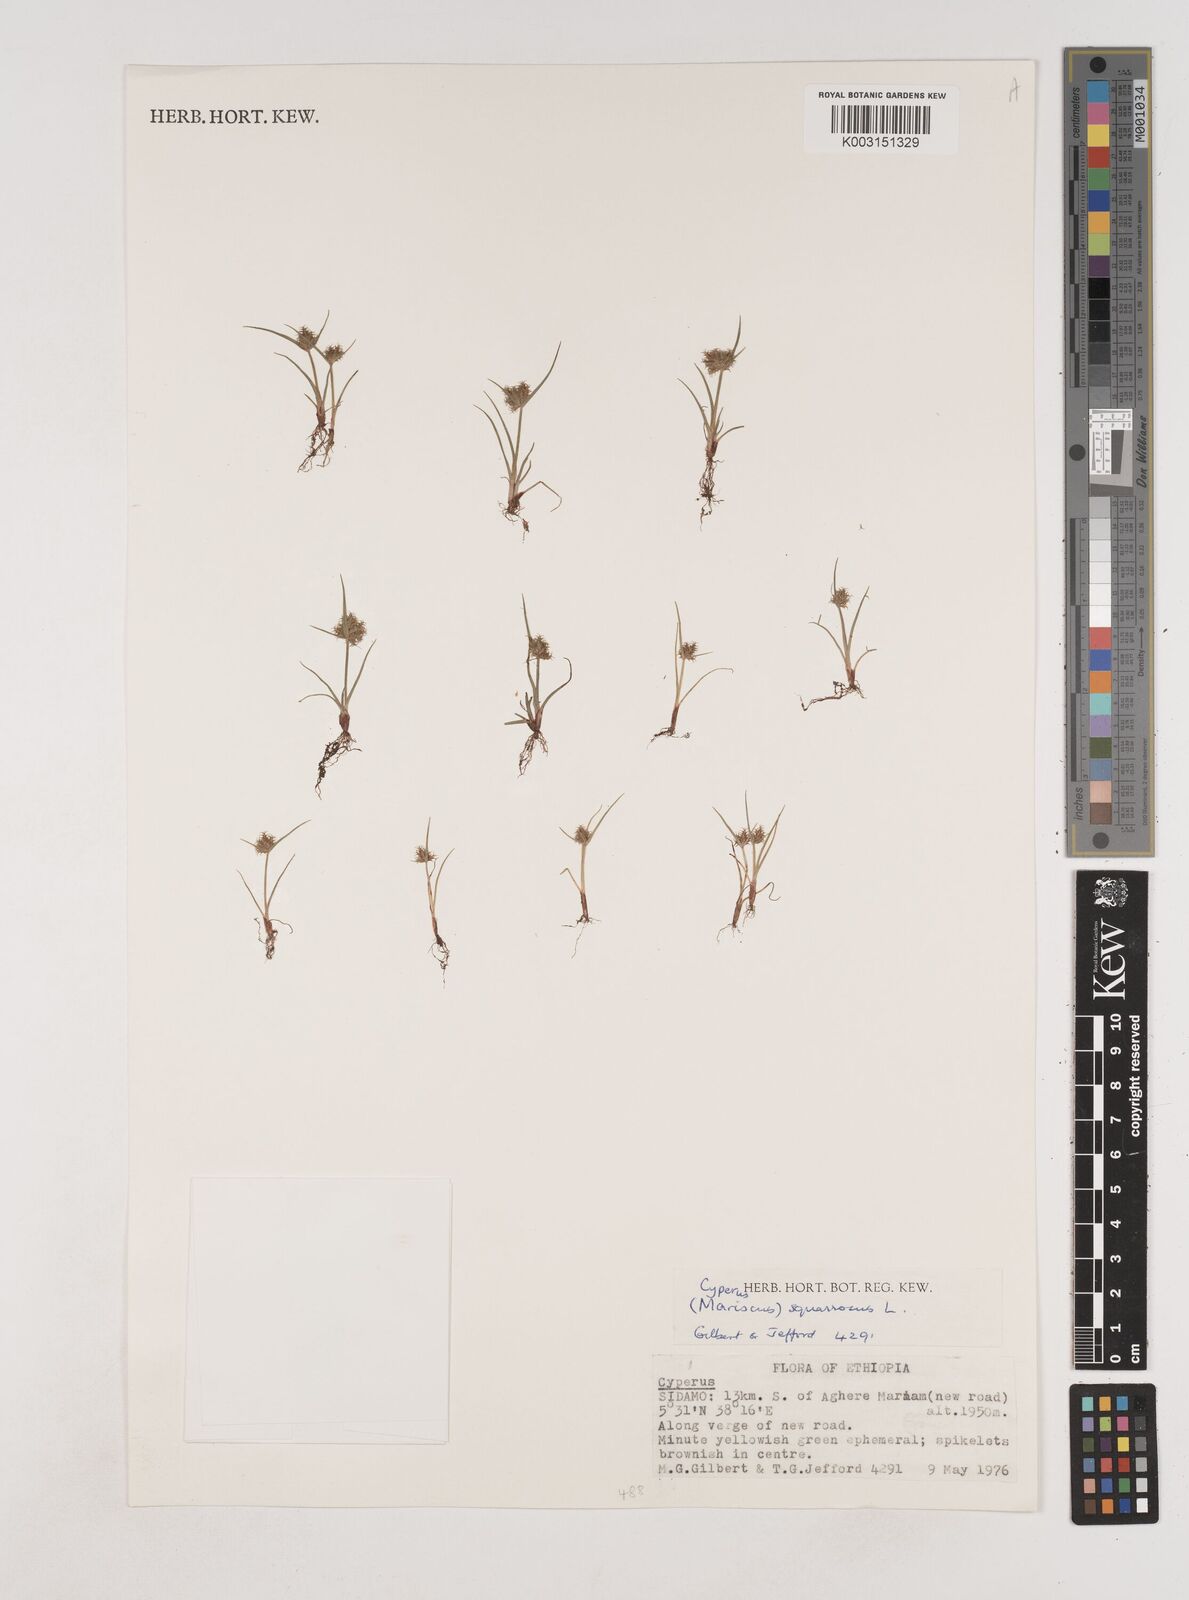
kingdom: Plantae
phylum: Tracheophyta
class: Liliopsida
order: Poales
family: Cyperaceae
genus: Cyperus
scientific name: Cyperus squarrosus
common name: Awned cyperus
